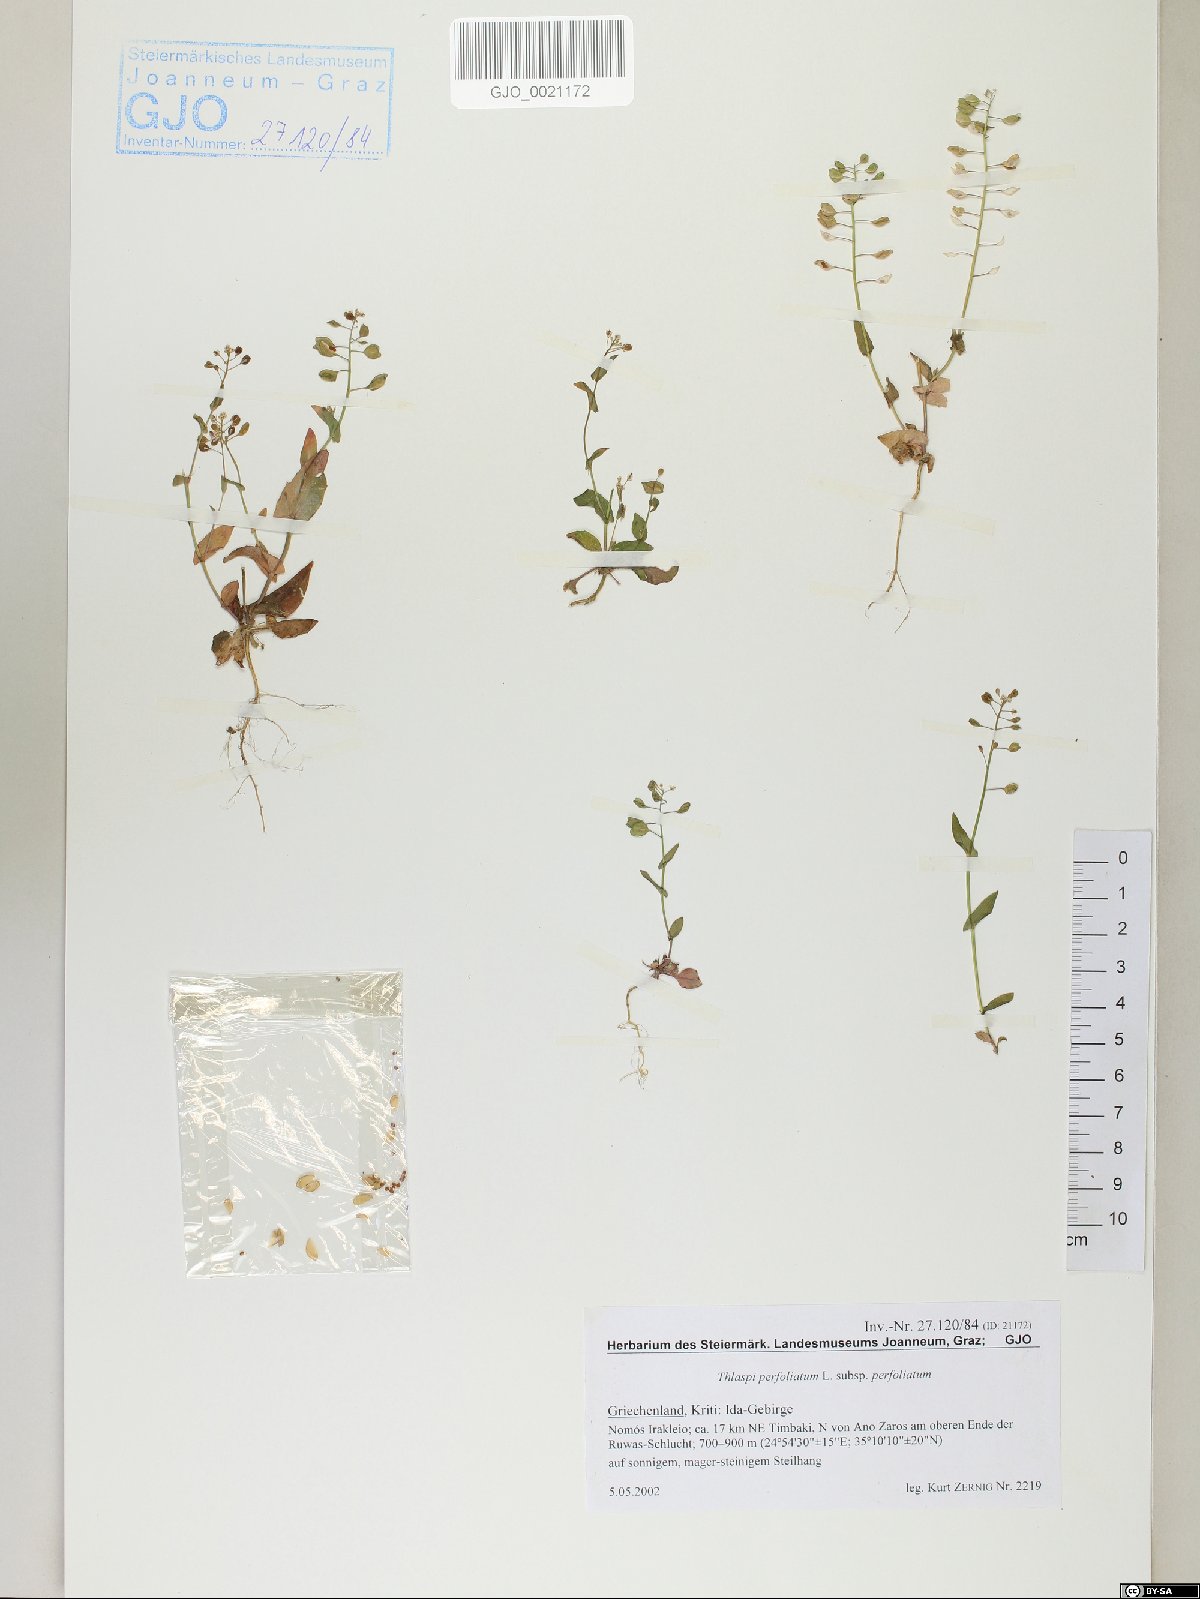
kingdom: Plantae
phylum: Tracheophyta
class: Magnoliopsida
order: Brassicales
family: Brassicaceae
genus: Noccaea
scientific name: Noccaea perfoliata
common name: Perfoliate pennycress
